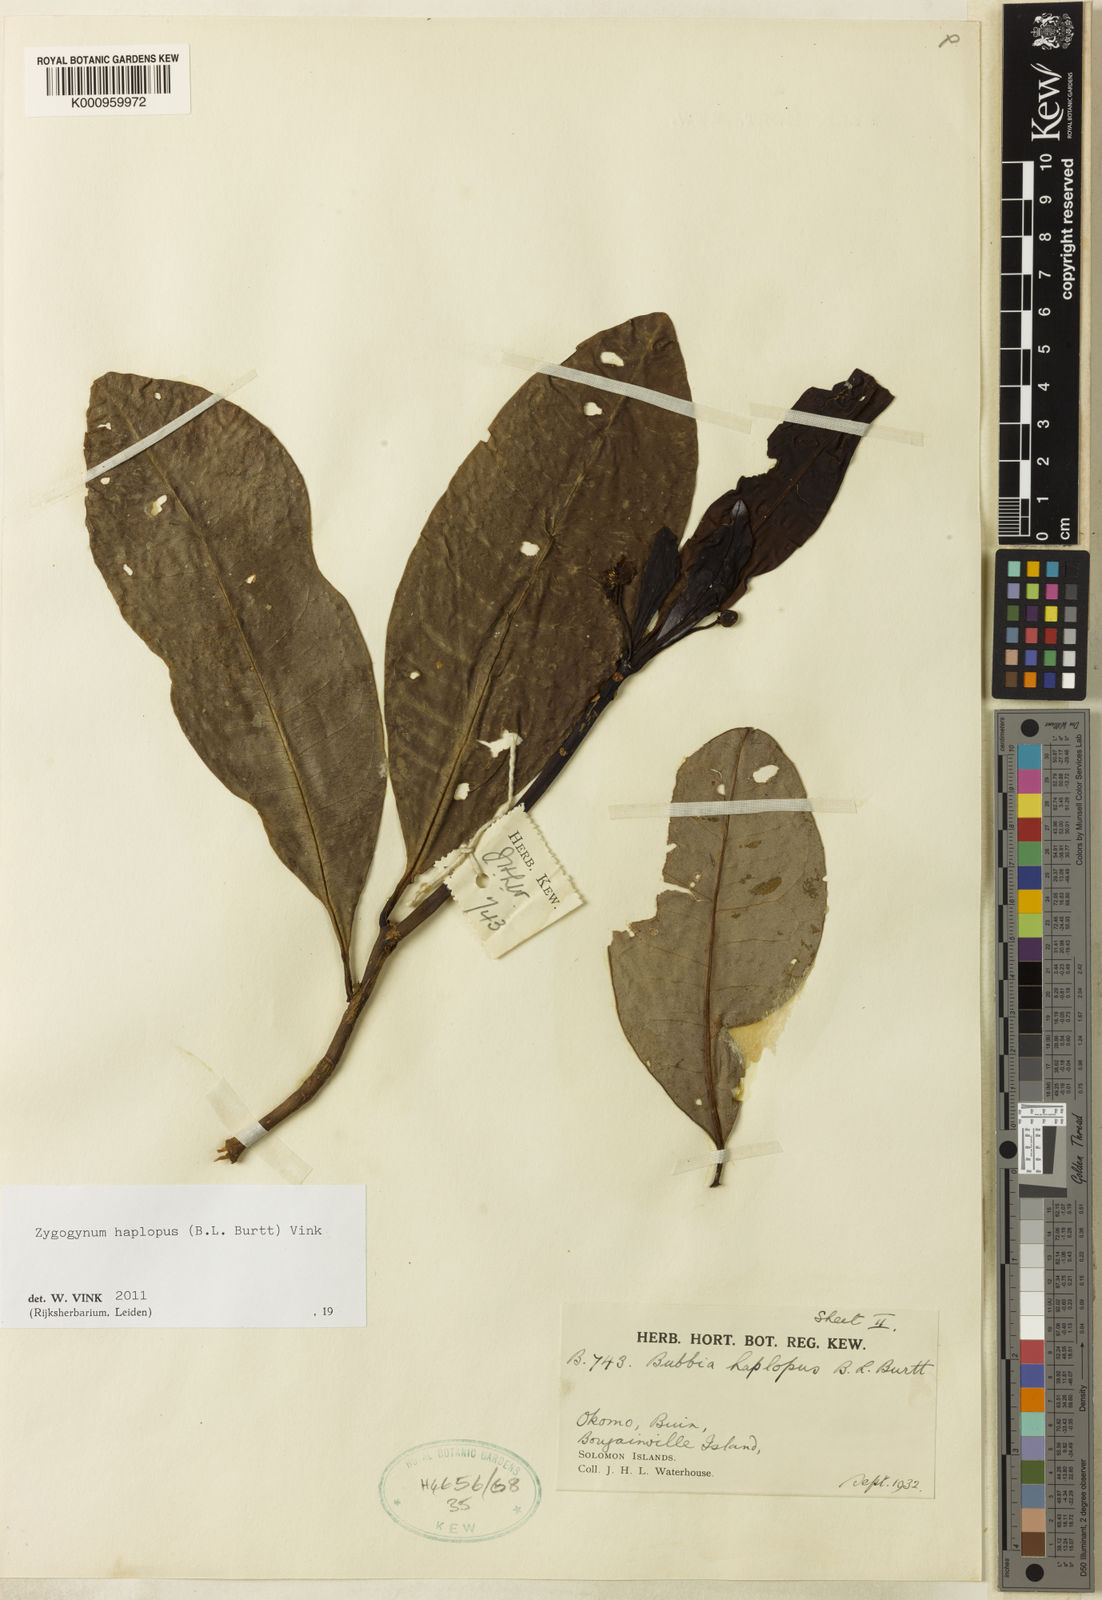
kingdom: Plantae
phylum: Tracheophyta
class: Magnoliopsida
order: Canellales
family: Winteraceae
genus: Zygogynum
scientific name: Zygogynum haplopus
